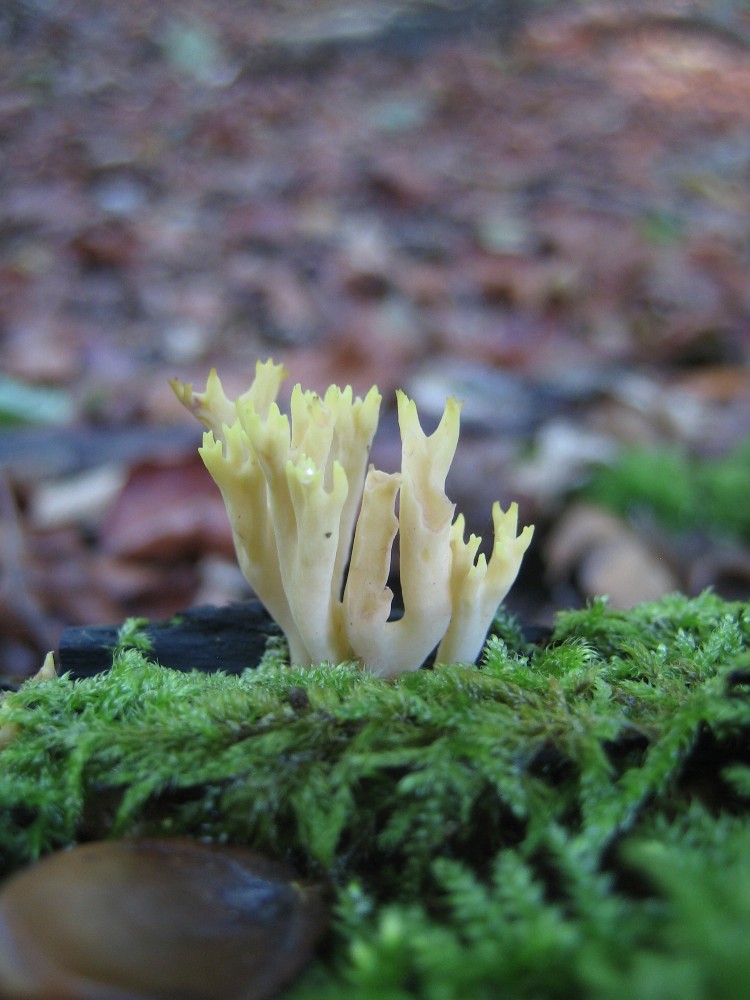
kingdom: Fungi
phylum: Basidiomycota
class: Agaricomycetes
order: Gomphales
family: Gomphaceae
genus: Ramaria
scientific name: Ramaria stricta
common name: rank koralsvamp
